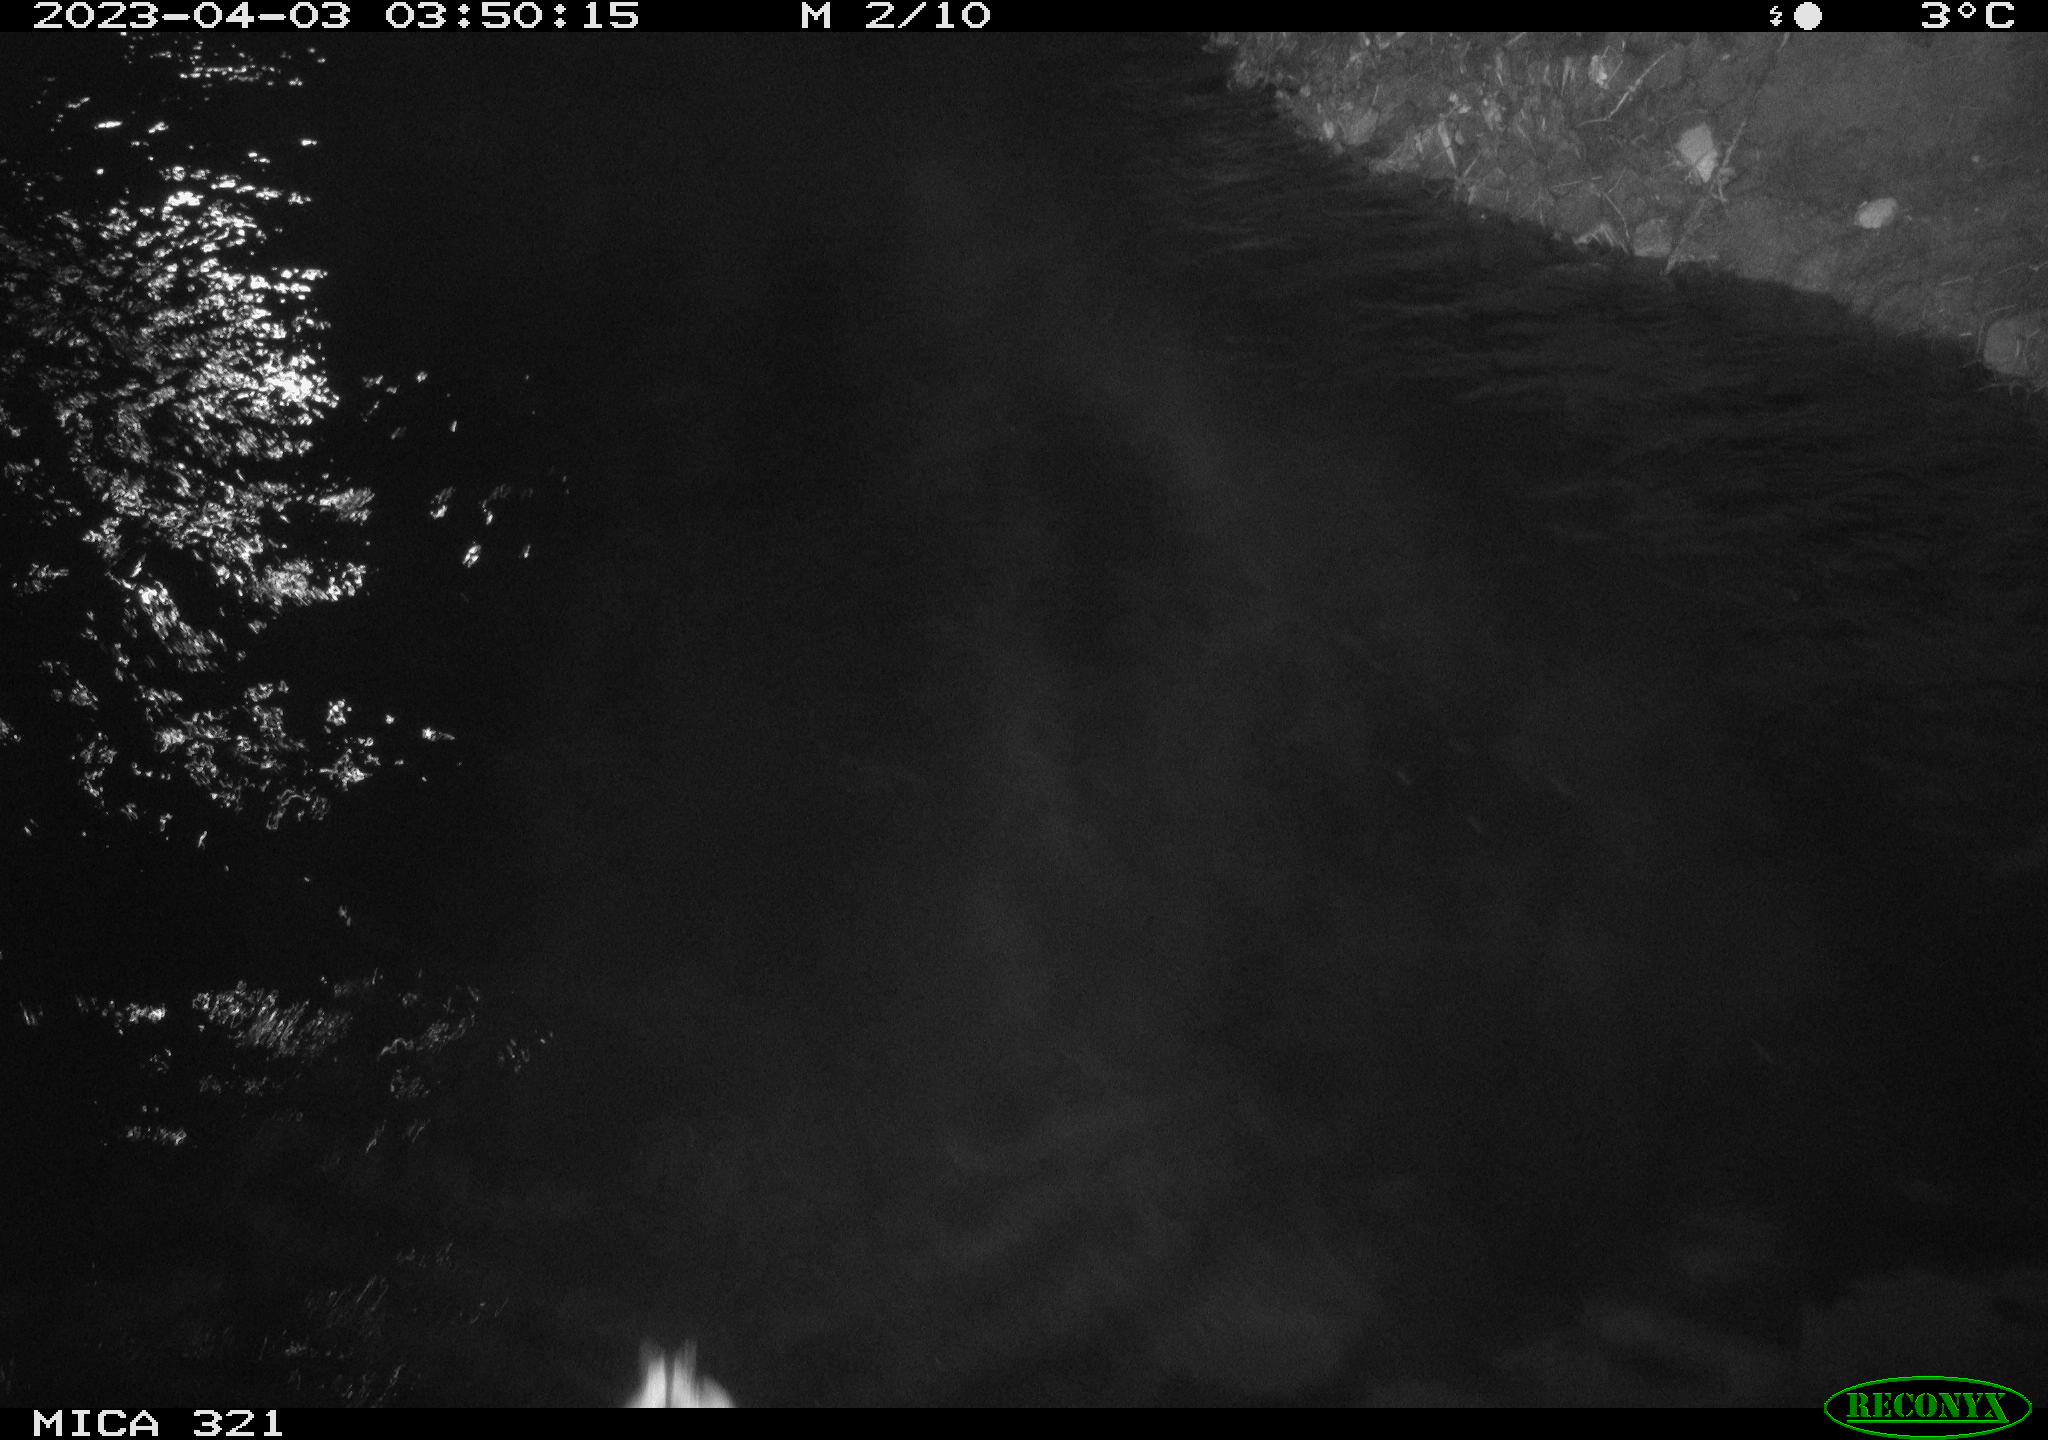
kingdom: Animalia
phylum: Chordata
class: Aves
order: Anseriformes
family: Anatidae
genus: Anas
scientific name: Anas
